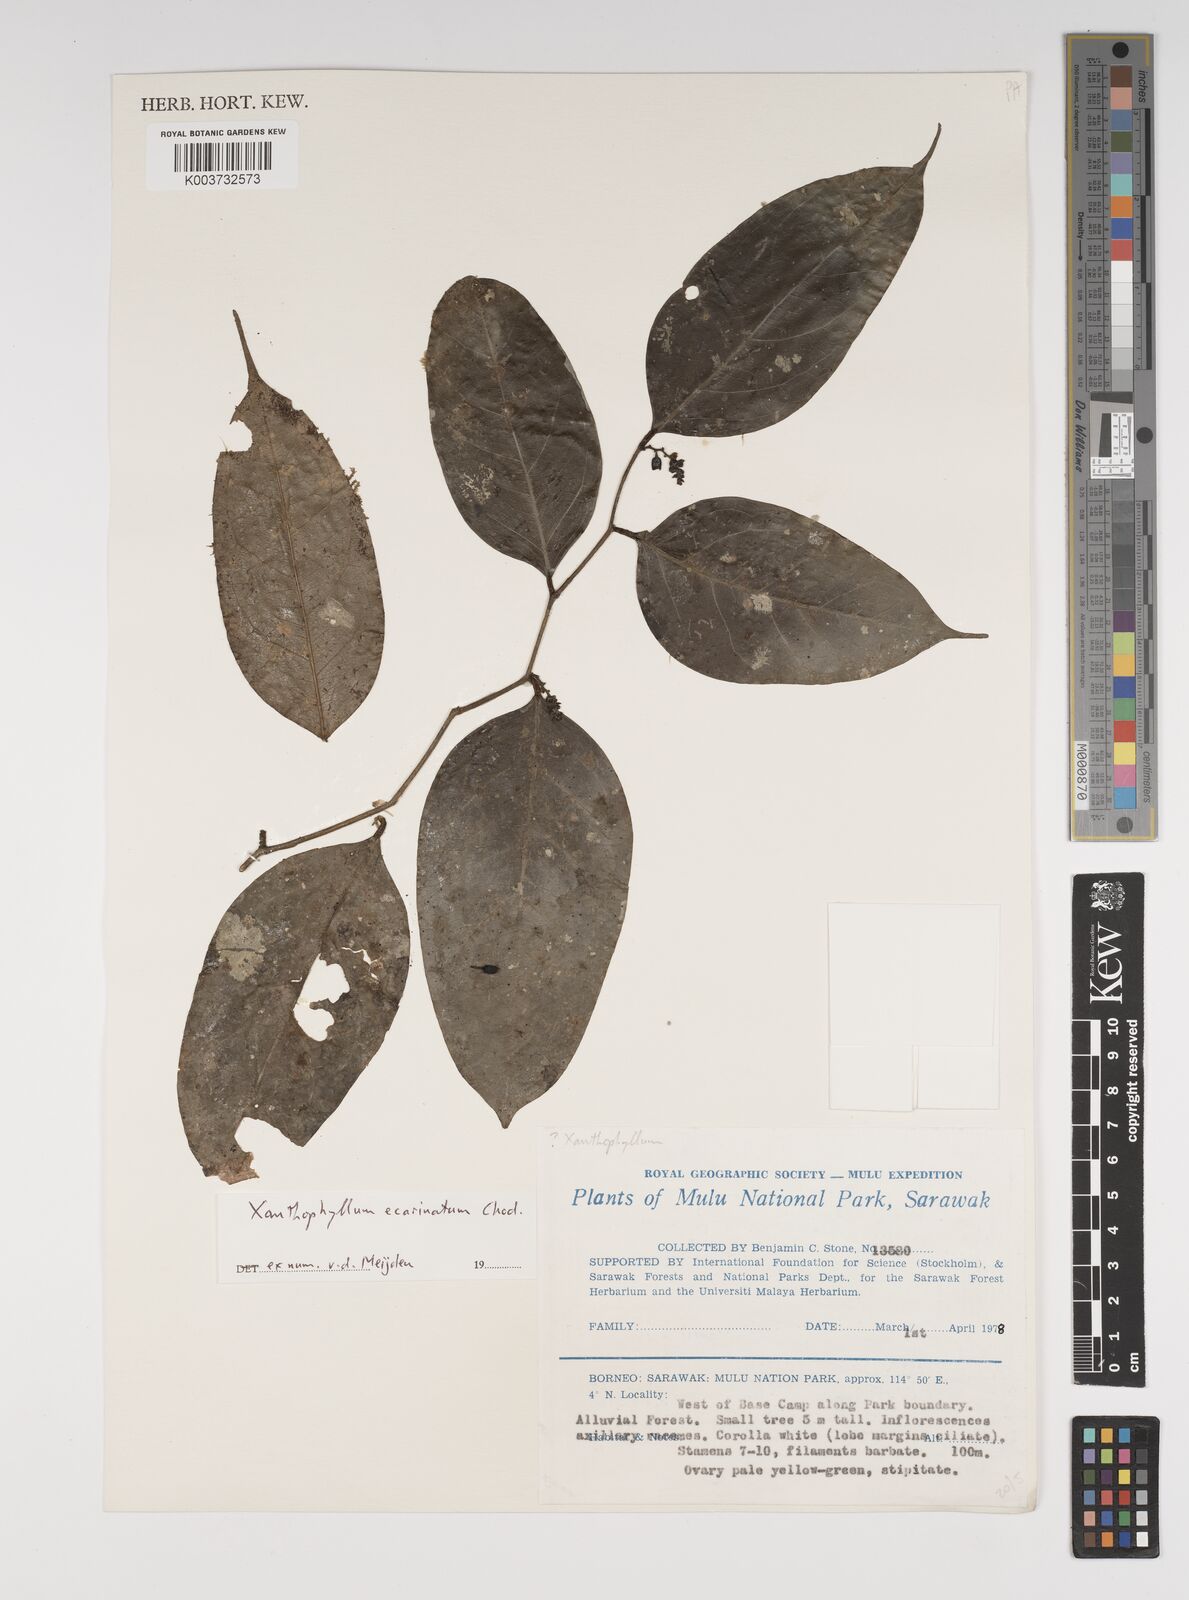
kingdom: Plantae
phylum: Tracheophyta
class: Magnoliopsida
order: Fabales
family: Polygalaceae
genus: Xanthophyllum
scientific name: Xanthophyllum ecarinatum
